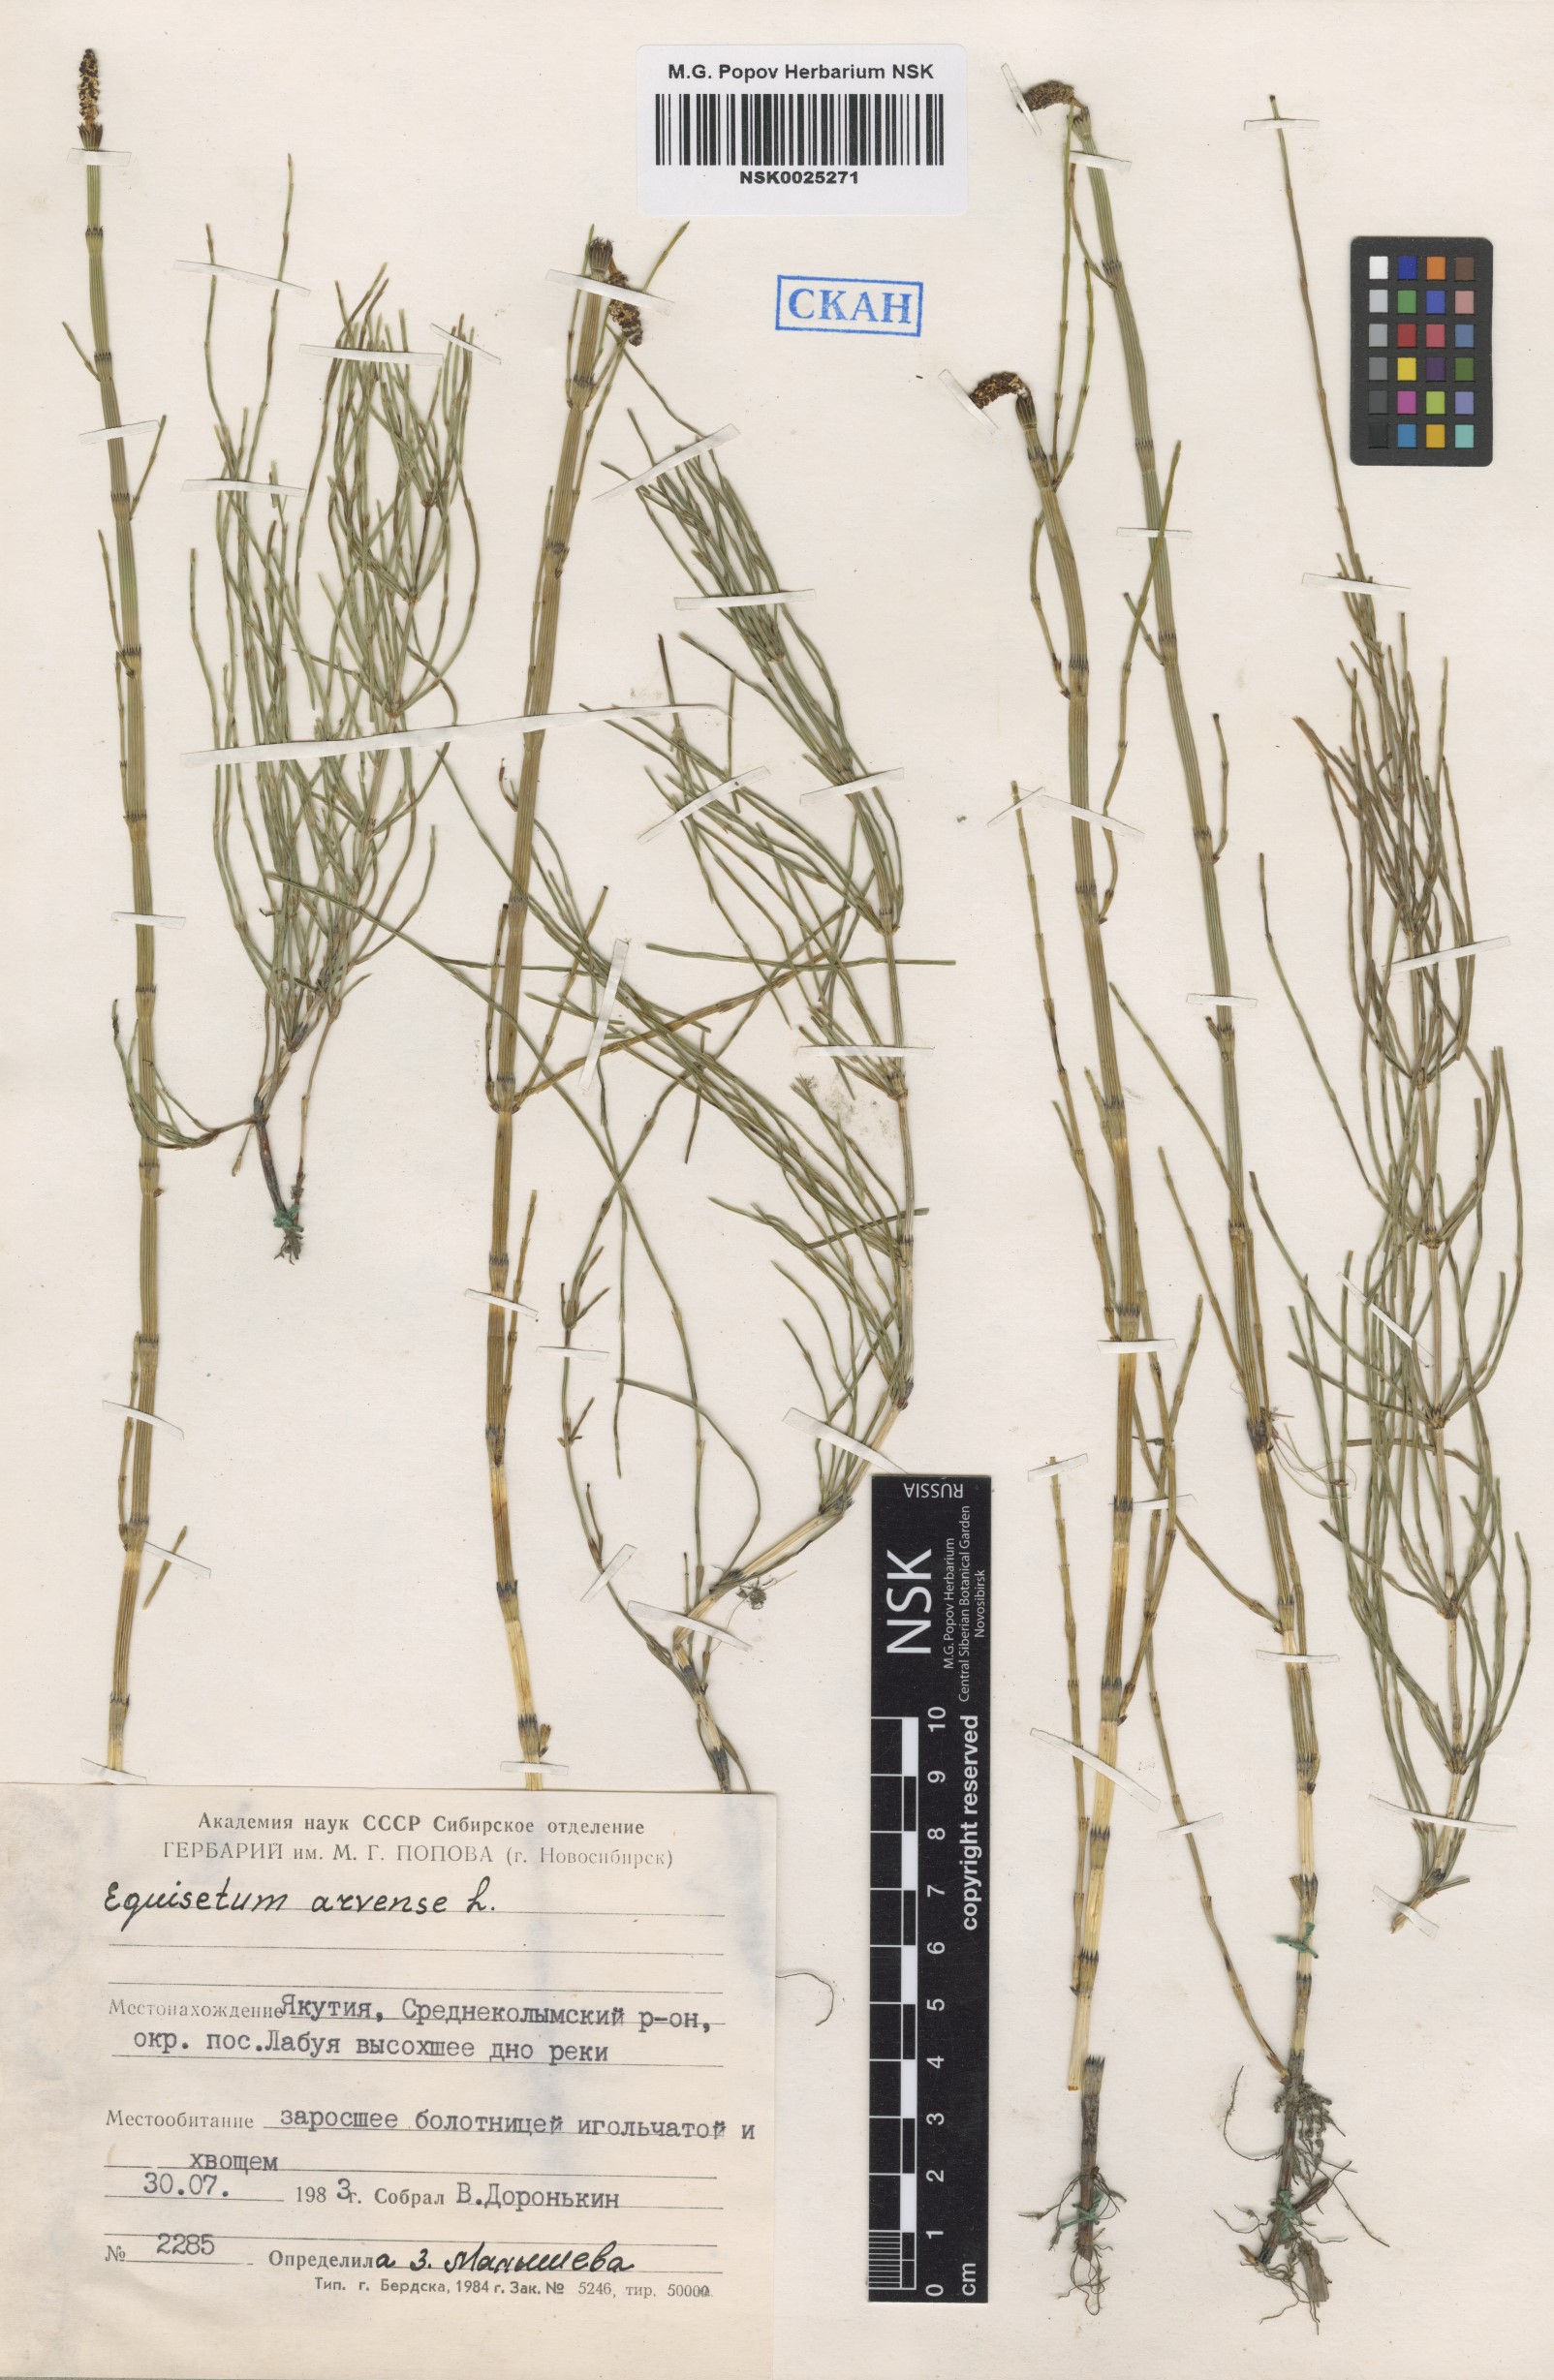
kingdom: Plantae
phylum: Tracheophyta
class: Polypodiopsida
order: Equisetales
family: Equisetaceae
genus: Equisetum
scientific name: Equisetum arvense
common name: Field horsetail
